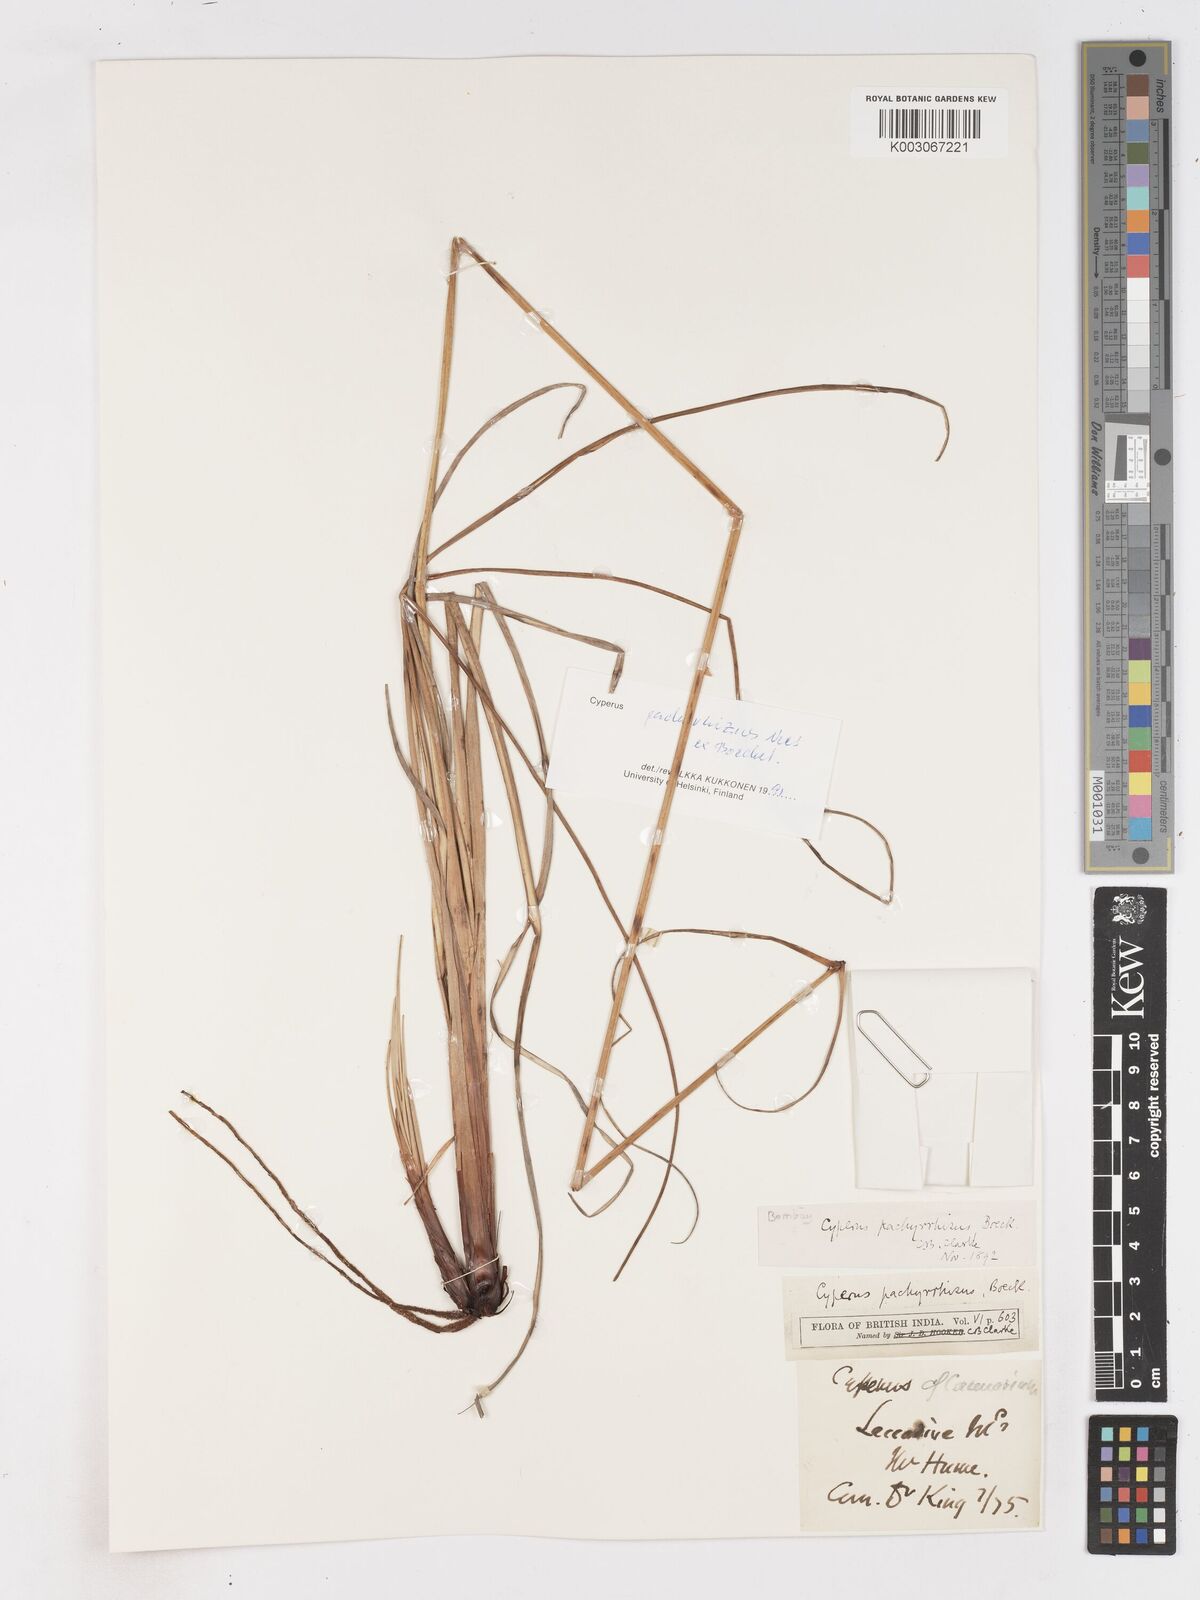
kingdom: Plantae
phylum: Tracheophyta
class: Liliopsida
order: Poales
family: Cyperaceae
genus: Cyperus
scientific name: Cyperus pachyrhizus
